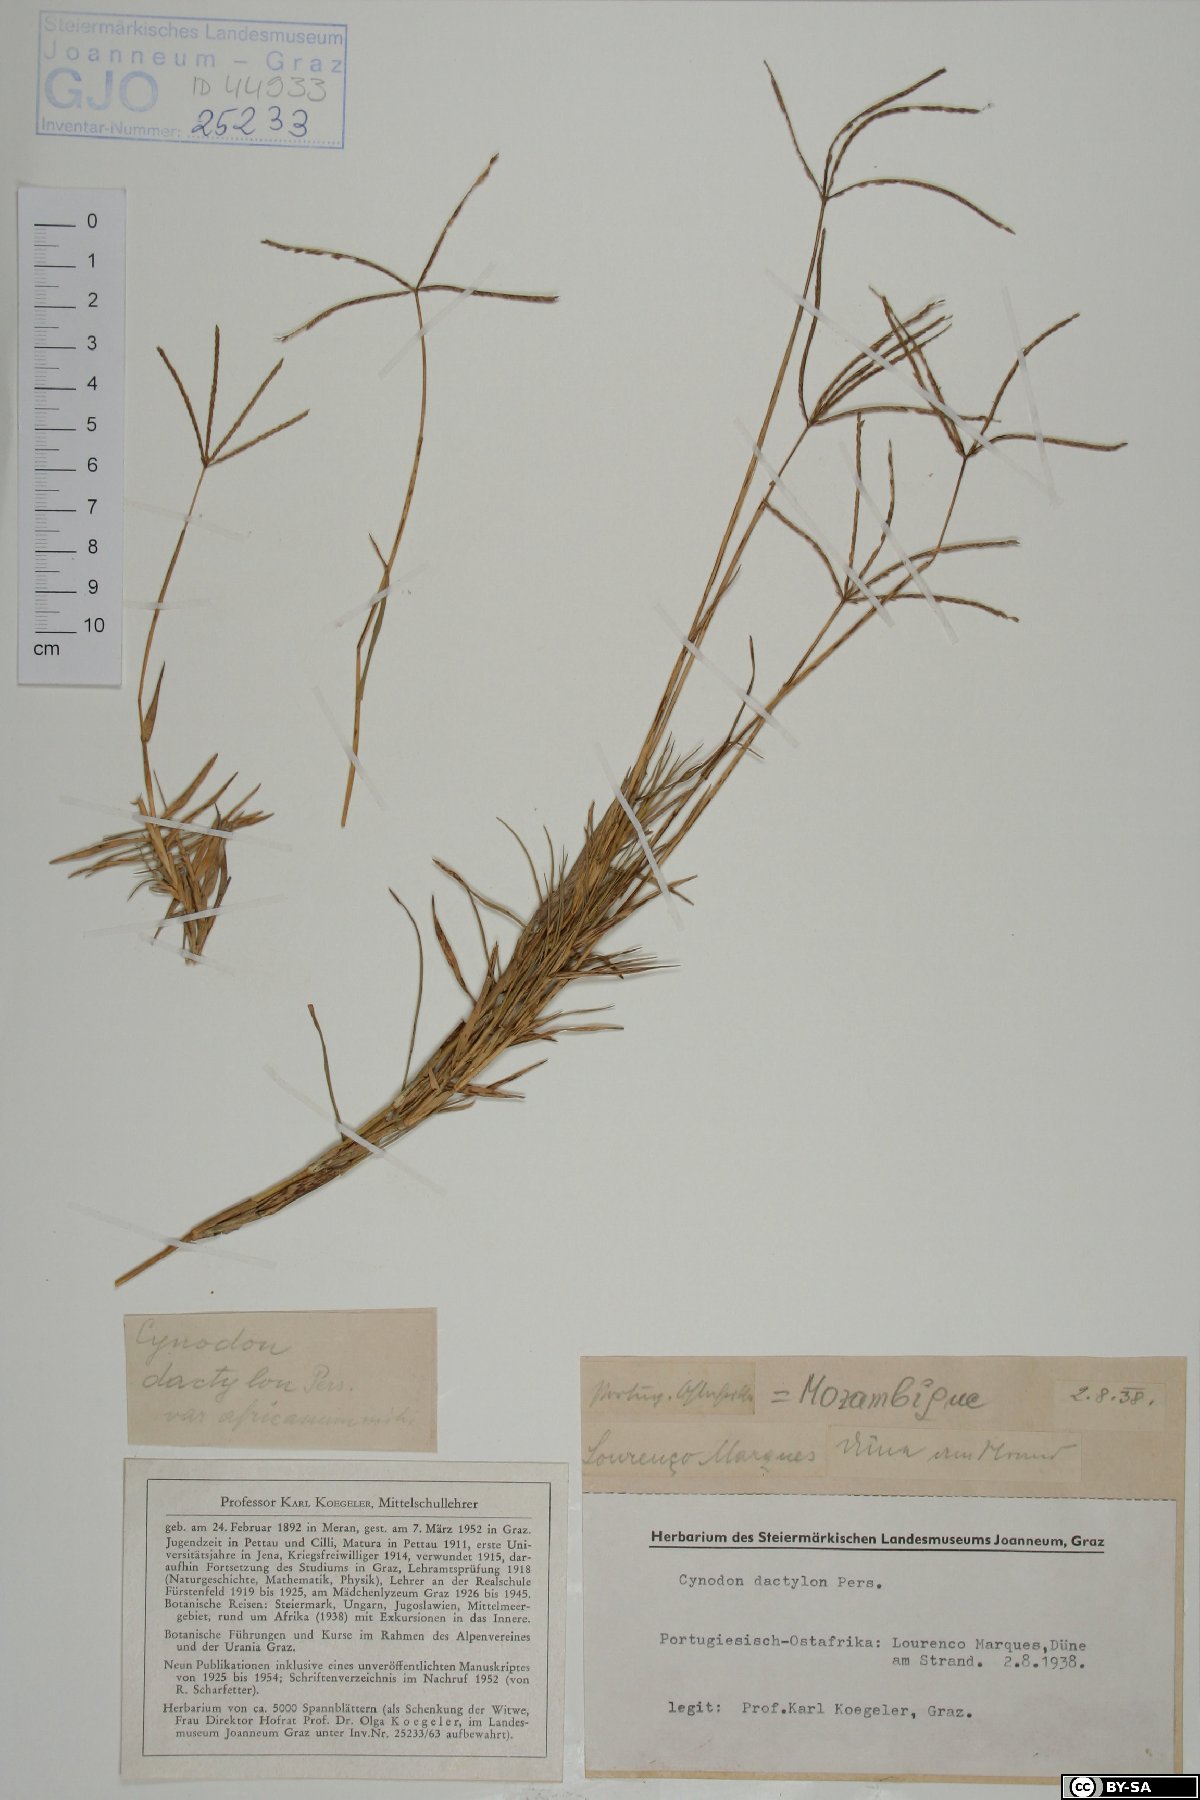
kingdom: Plantae
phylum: Tracheophyta
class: Liliopsida
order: Poales
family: Poaceae
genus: Cynodon
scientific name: Cynodon dactylon
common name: Bermuda grass
